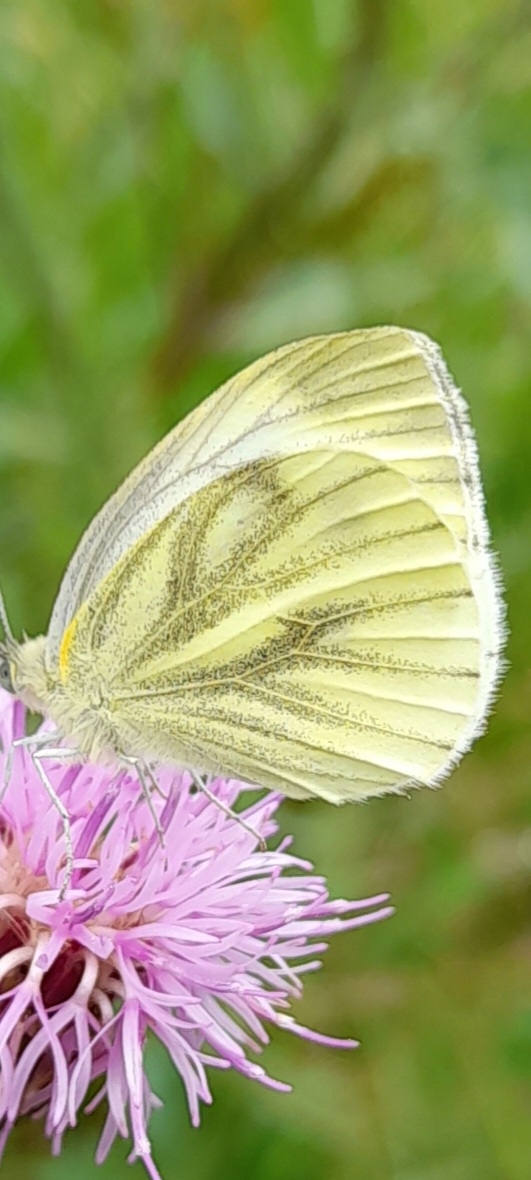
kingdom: Animalia
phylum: Arthropoda
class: Insecta
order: Lepidoptera
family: Pieridae
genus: Pieris
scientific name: Pieris napi
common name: Grønåret kålsommerfugl
